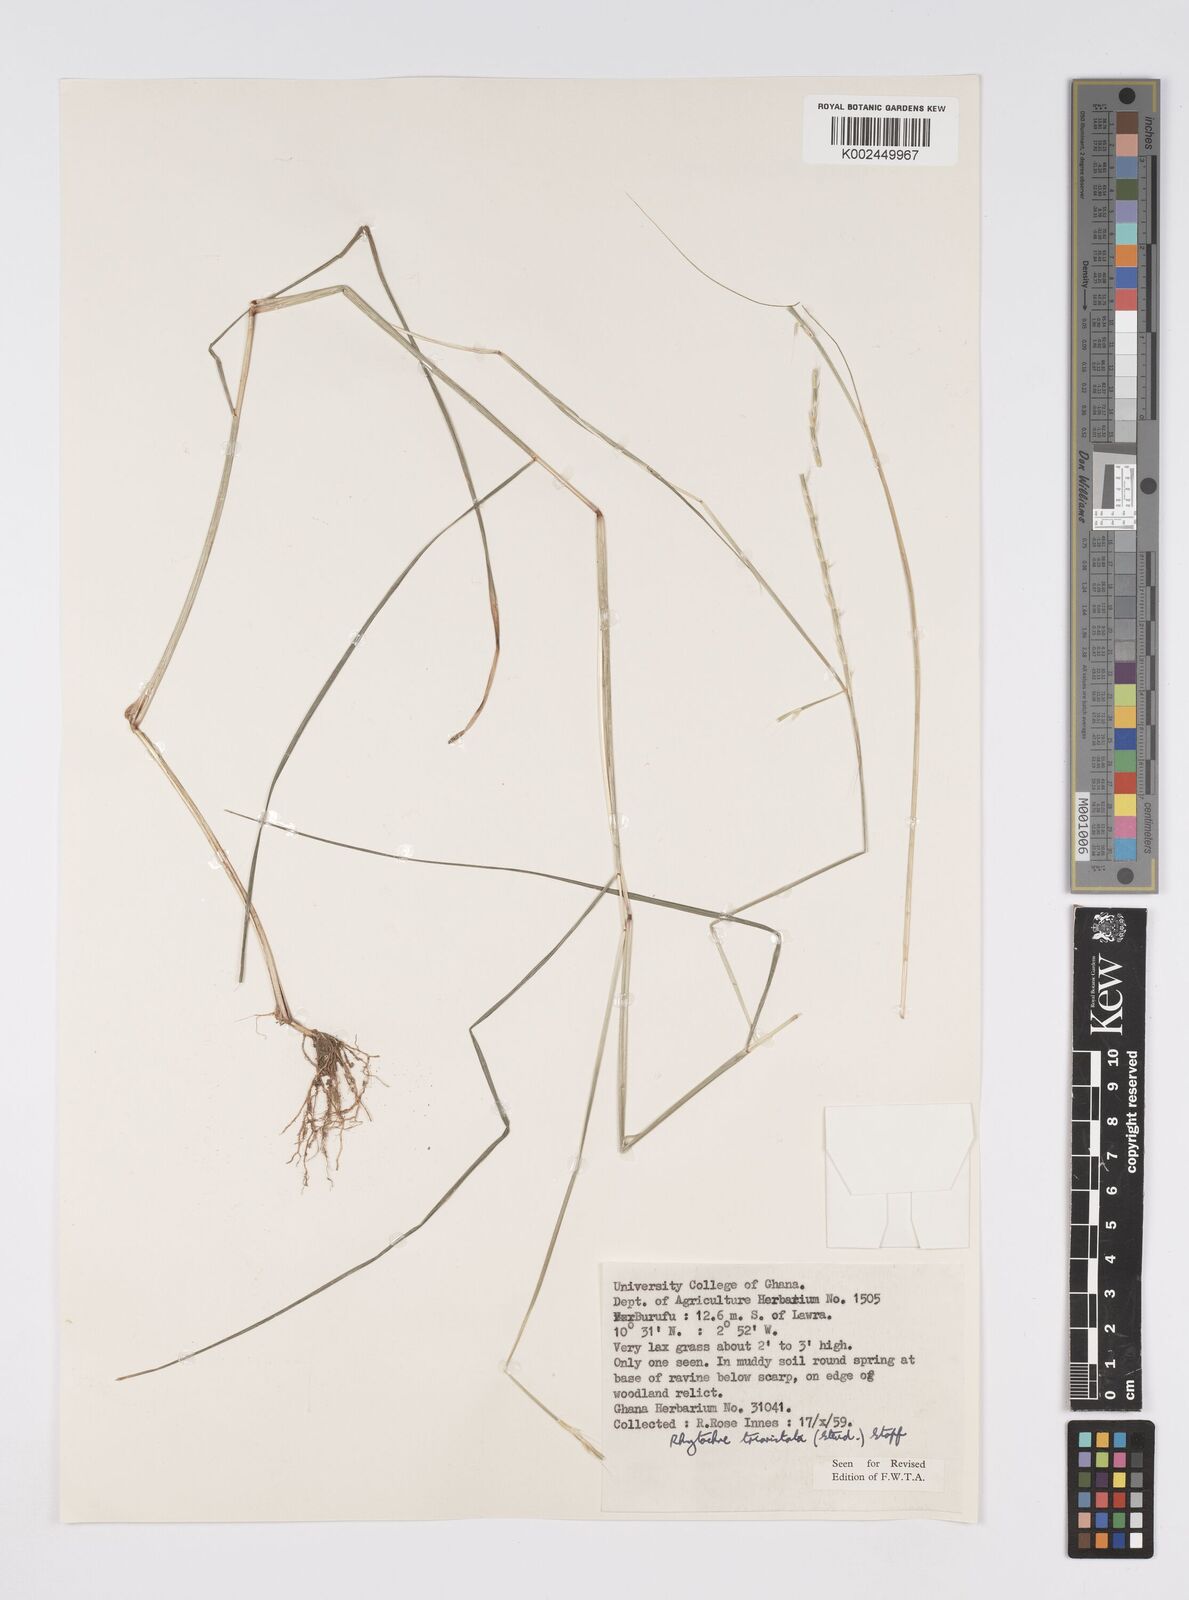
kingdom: Plantae
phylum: Tracheophyta
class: Liliopsida
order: Poales
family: Poaceae
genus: Rhytachne
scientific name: Rhytachne triaristata
